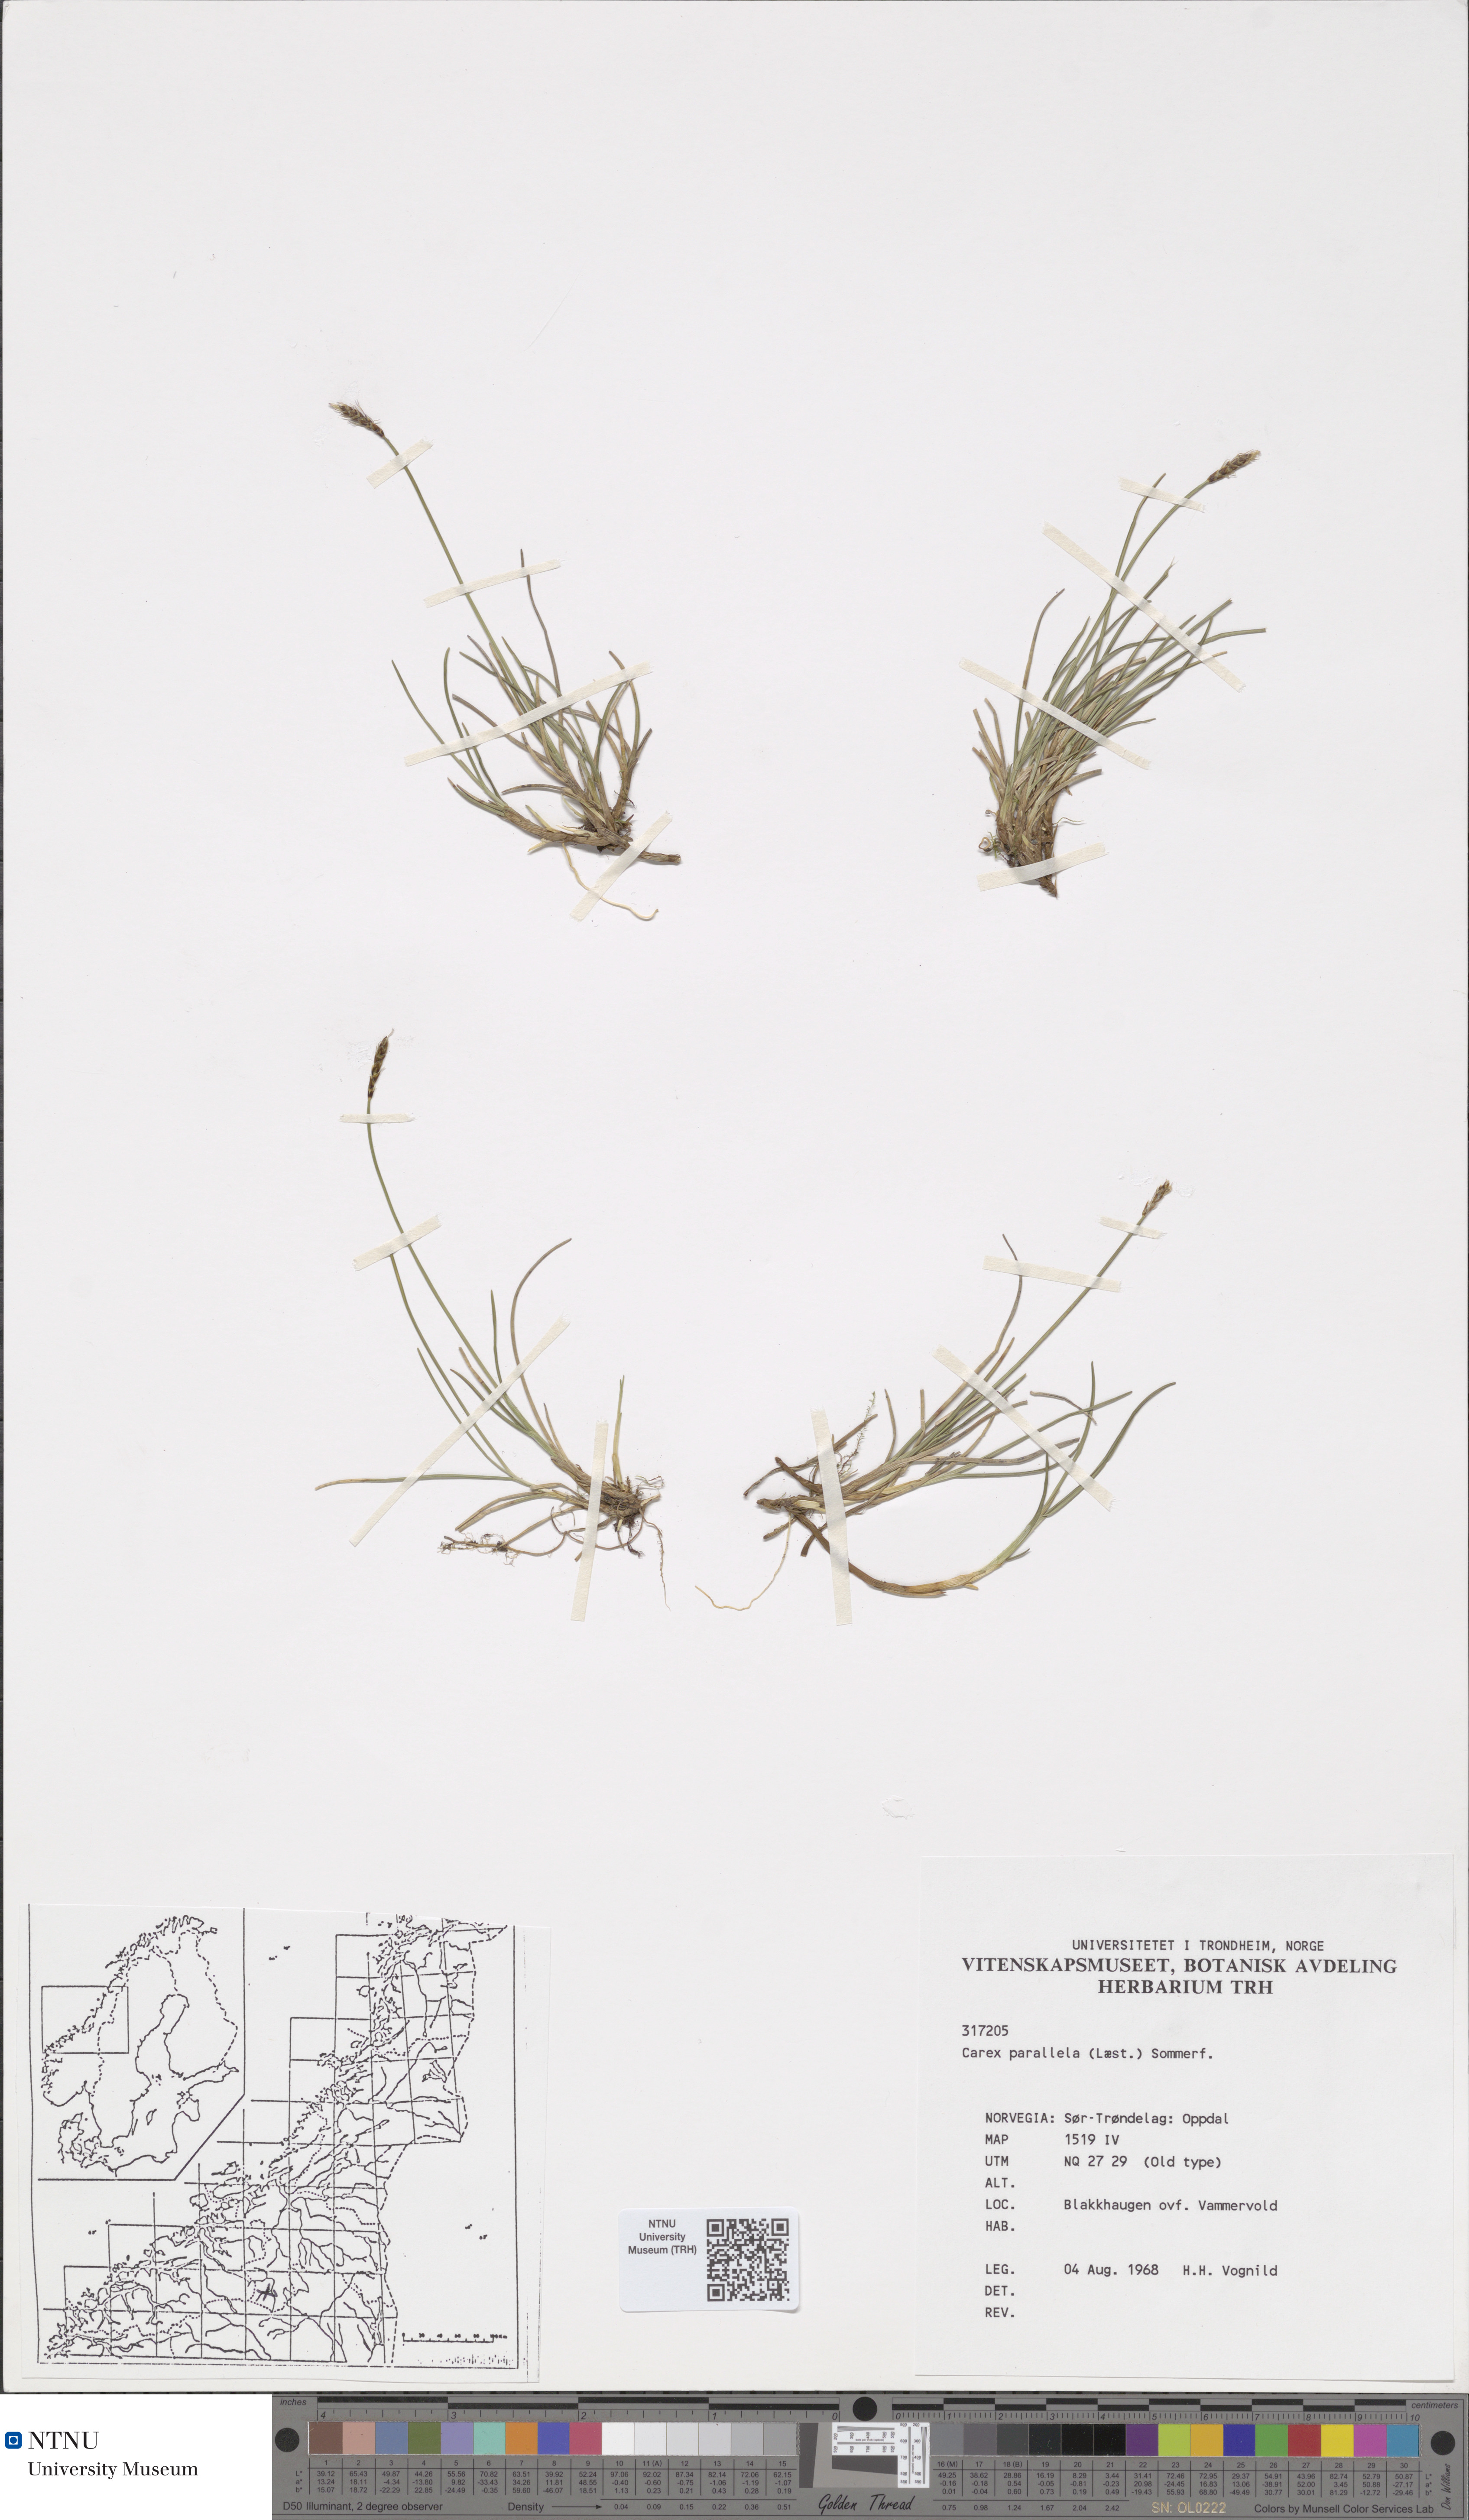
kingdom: Plantae
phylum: Tracheophyta
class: Liliopsida
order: Poales
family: Cyperaceae
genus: Carex
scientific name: Carex parallela
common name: Parallel sedge
